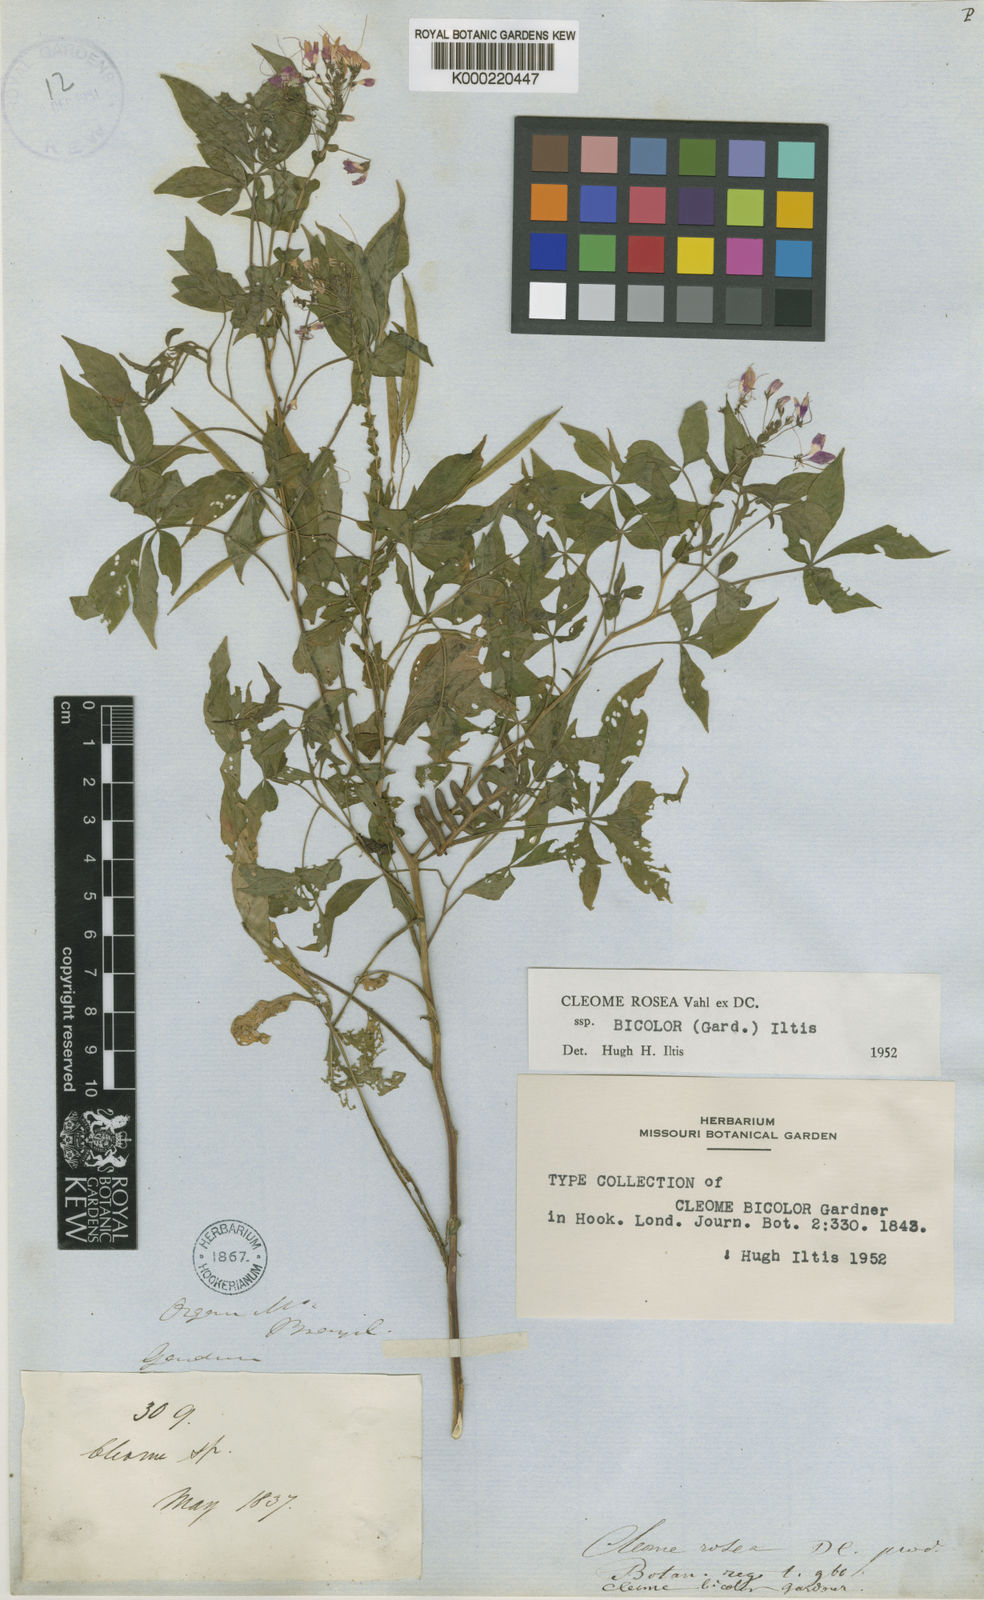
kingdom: Plantae
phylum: Tracheophyta
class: Magnoliopsida
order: Brassicales
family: Cleomaceae
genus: Tarenaya
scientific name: Tarenaya rosea
